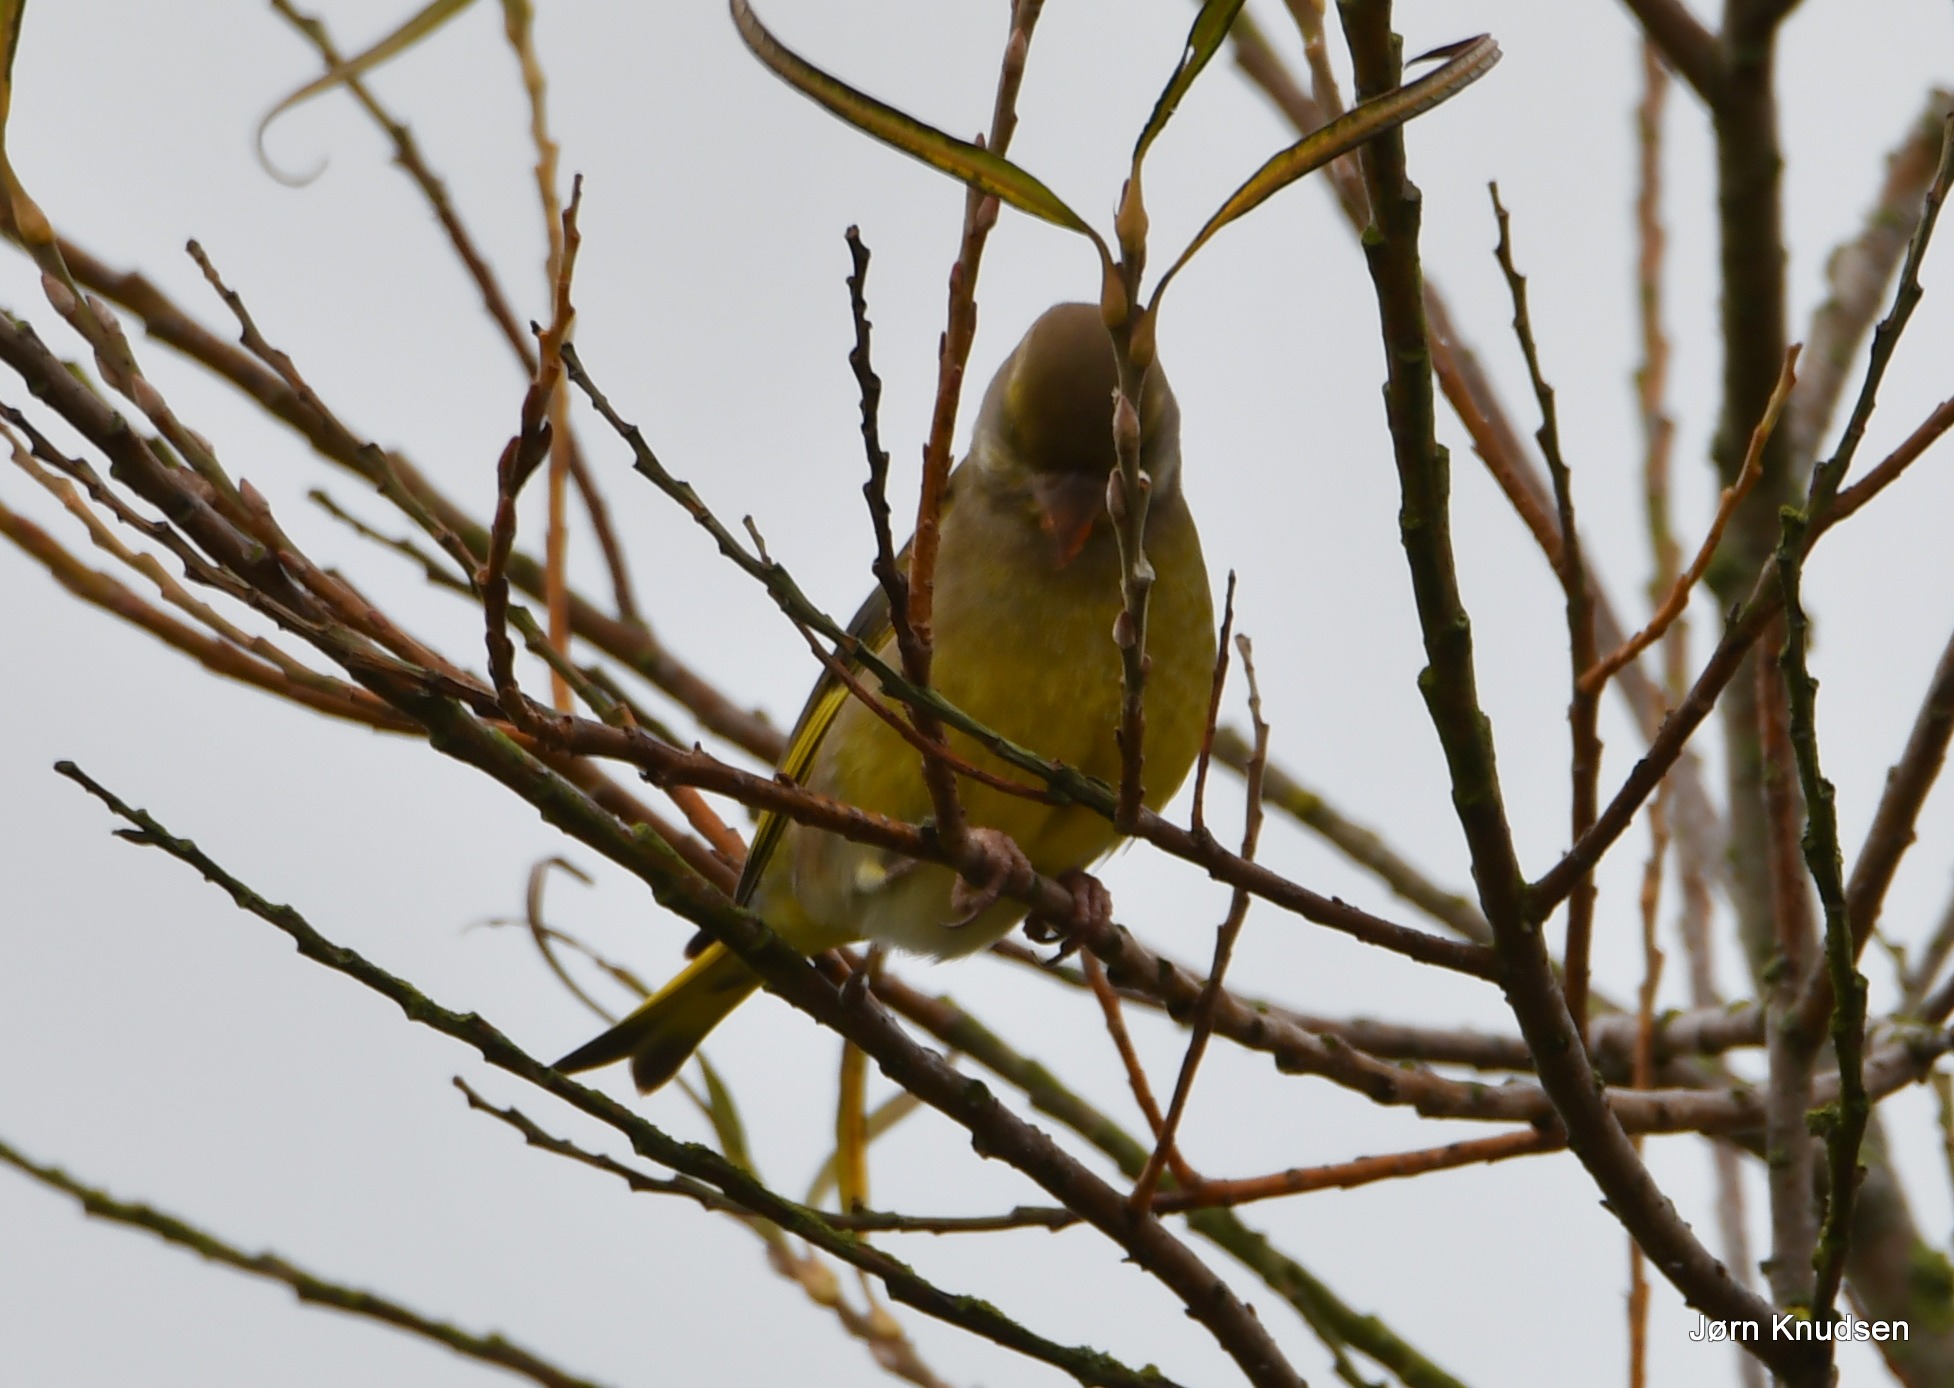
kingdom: Plantae
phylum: Tracheophyta
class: Liliopsida
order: Poales
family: Poaceae
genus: Chloris
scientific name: Chloris chloris
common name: Grønirisk
